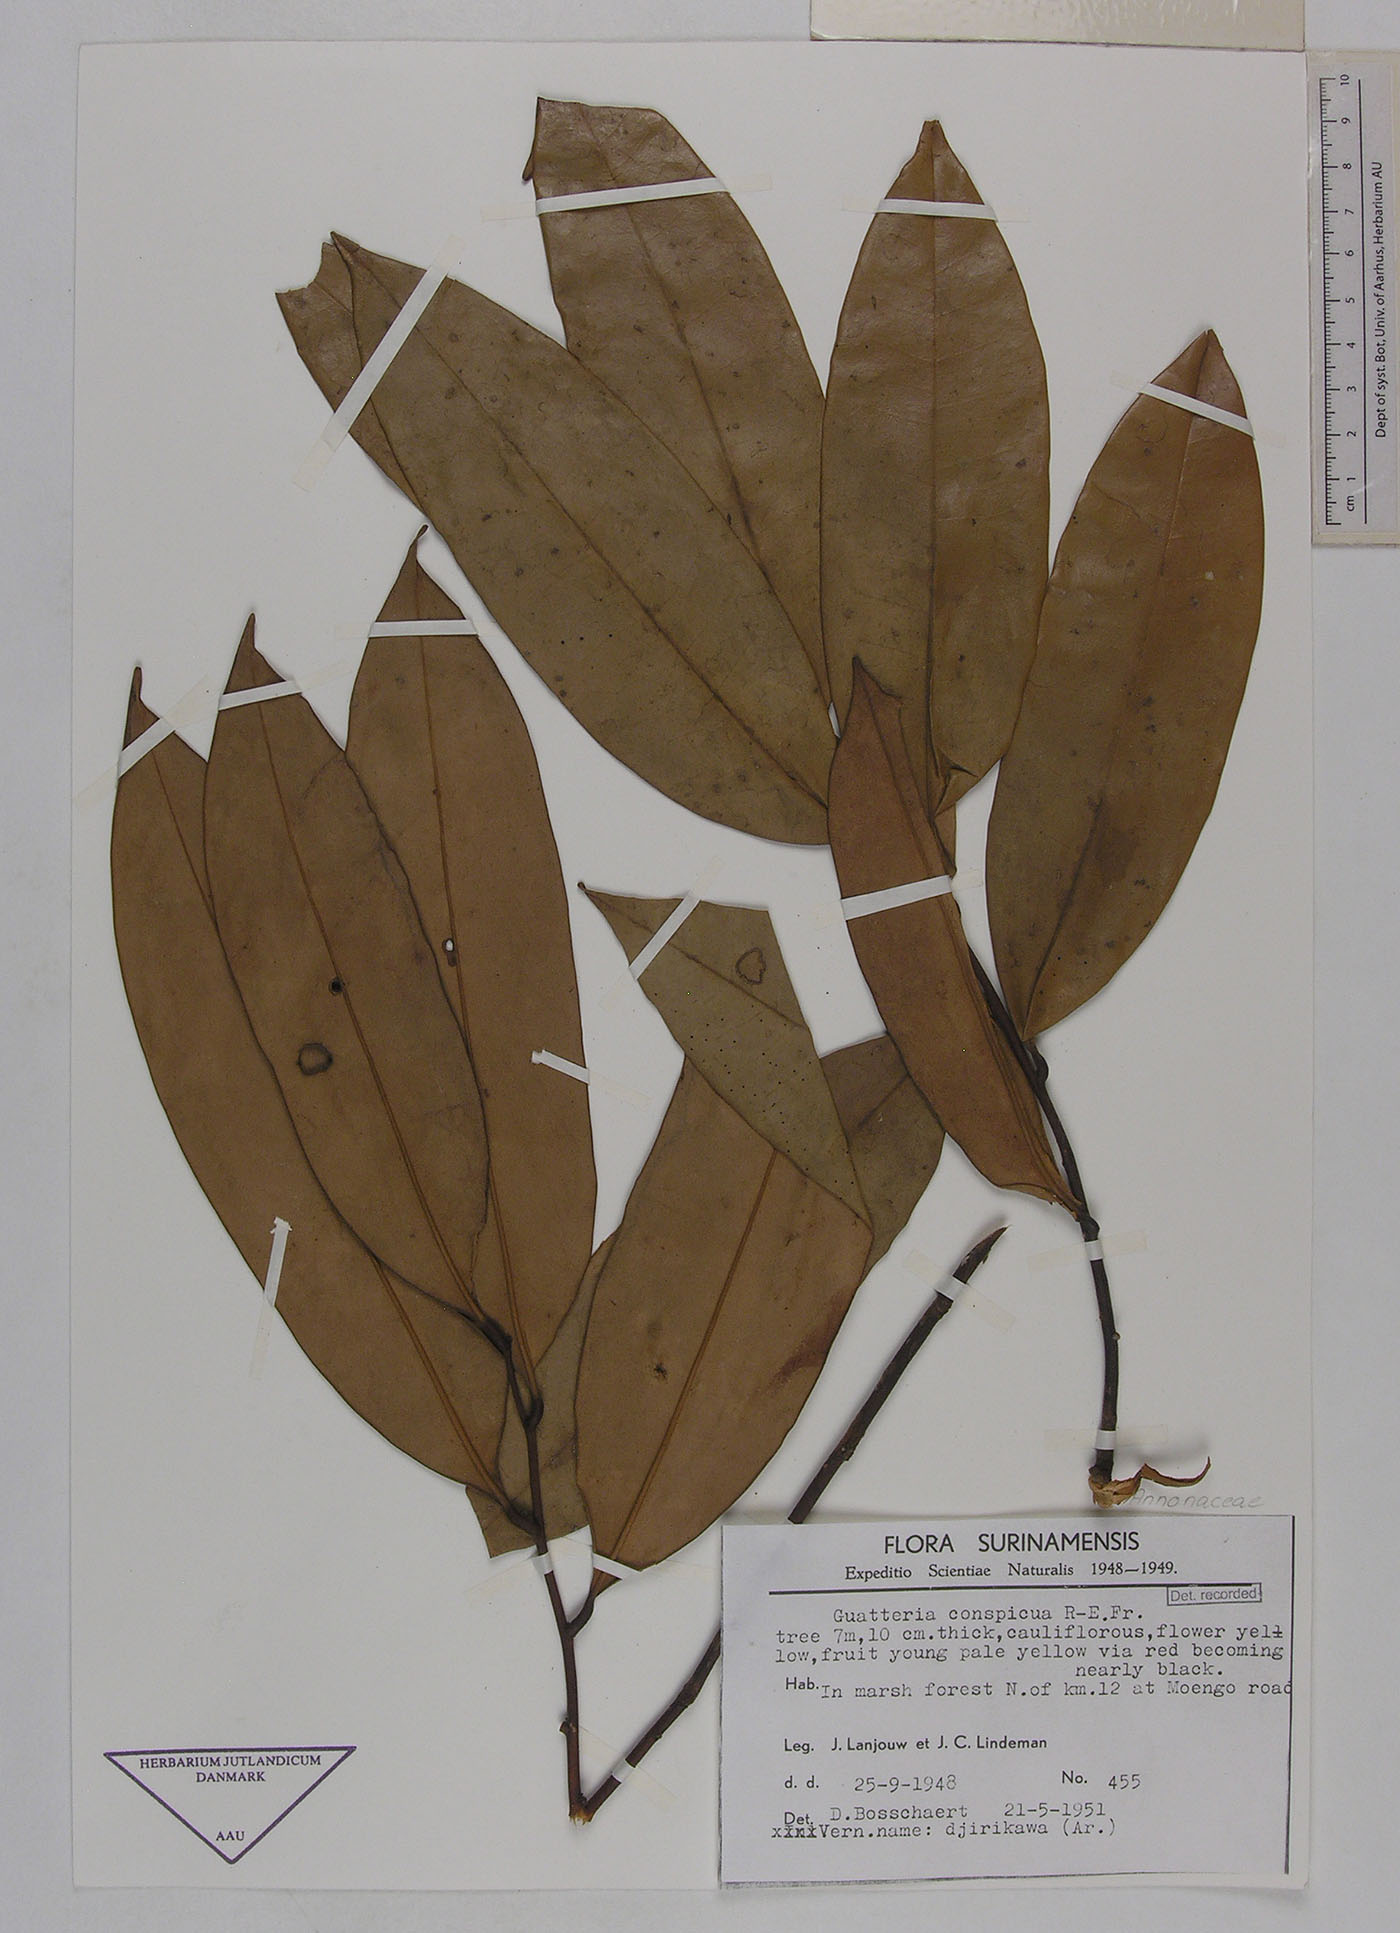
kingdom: Plantae
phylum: Tracheophyta
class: Magnoliopsida
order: Magnoliales
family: Annonaceae
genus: Guatteria
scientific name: Guatteria conspicua
